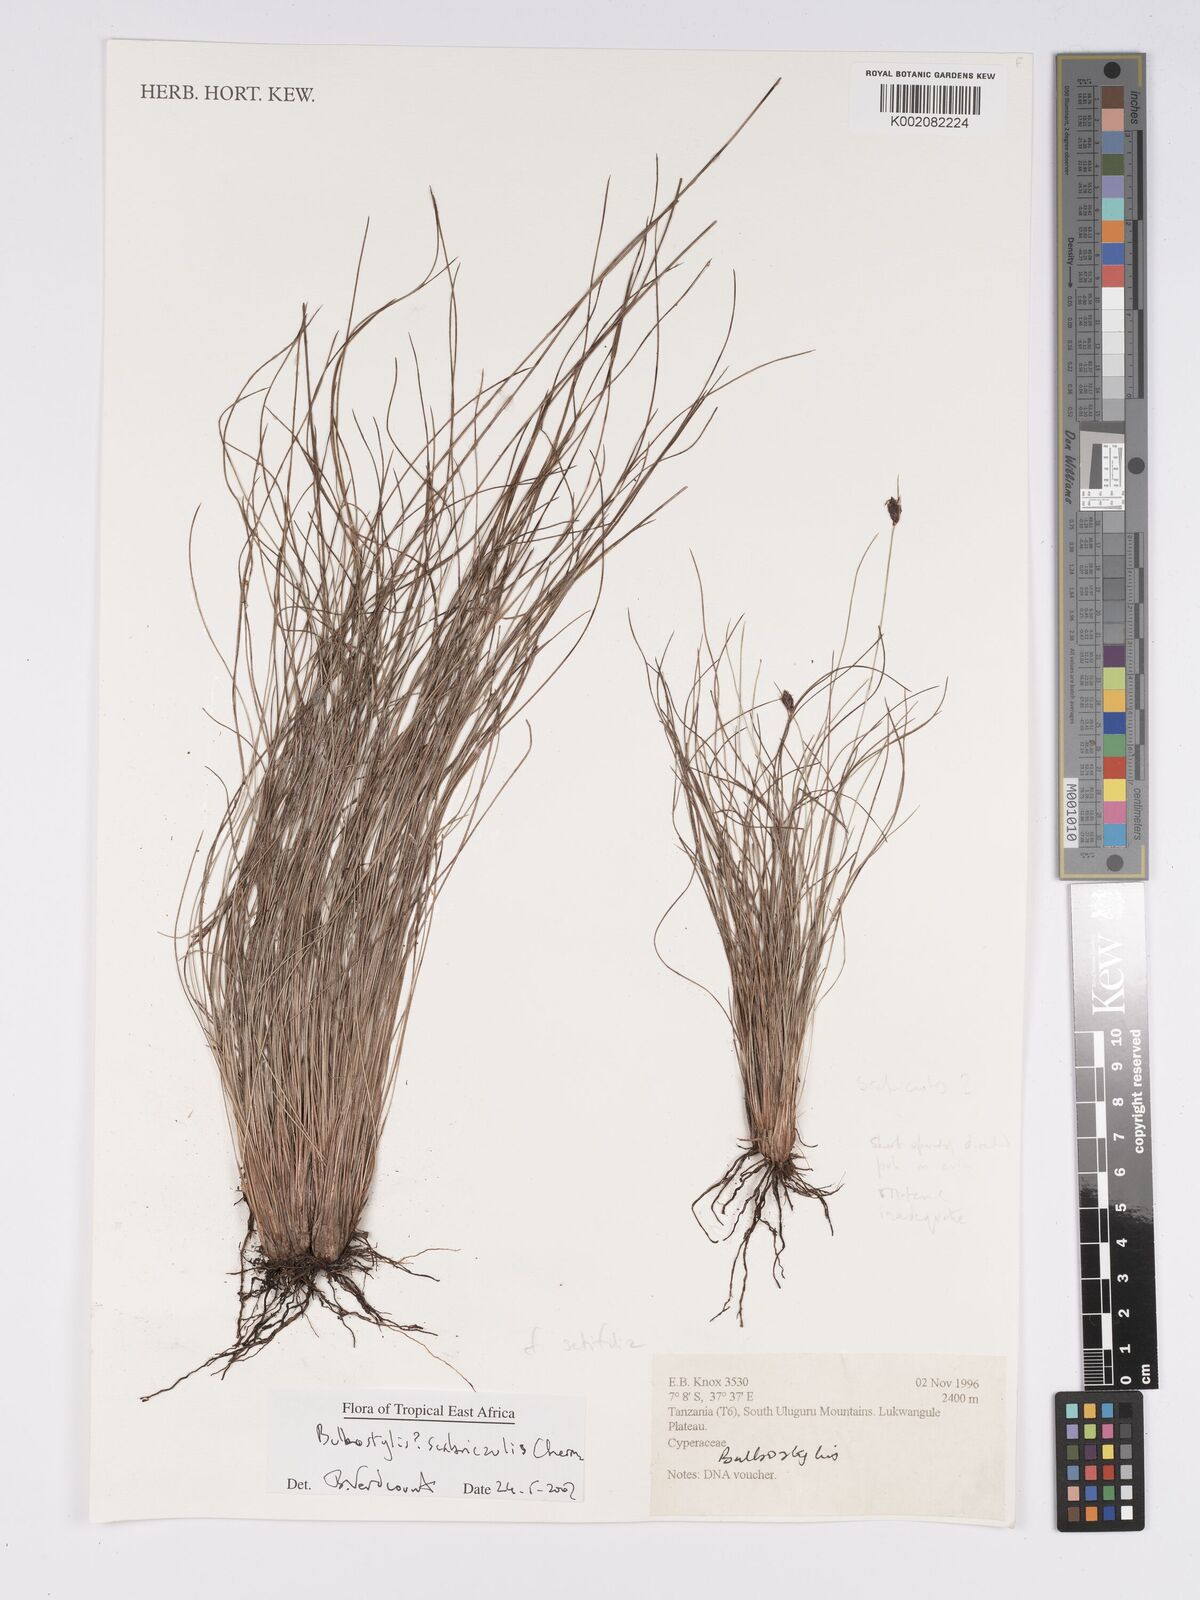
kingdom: Plantae
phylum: Tracheophyta
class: Liliopsida
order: Poales
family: Cyperaceae
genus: Bulbostylis
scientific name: Bulbostylis scabricaulis
